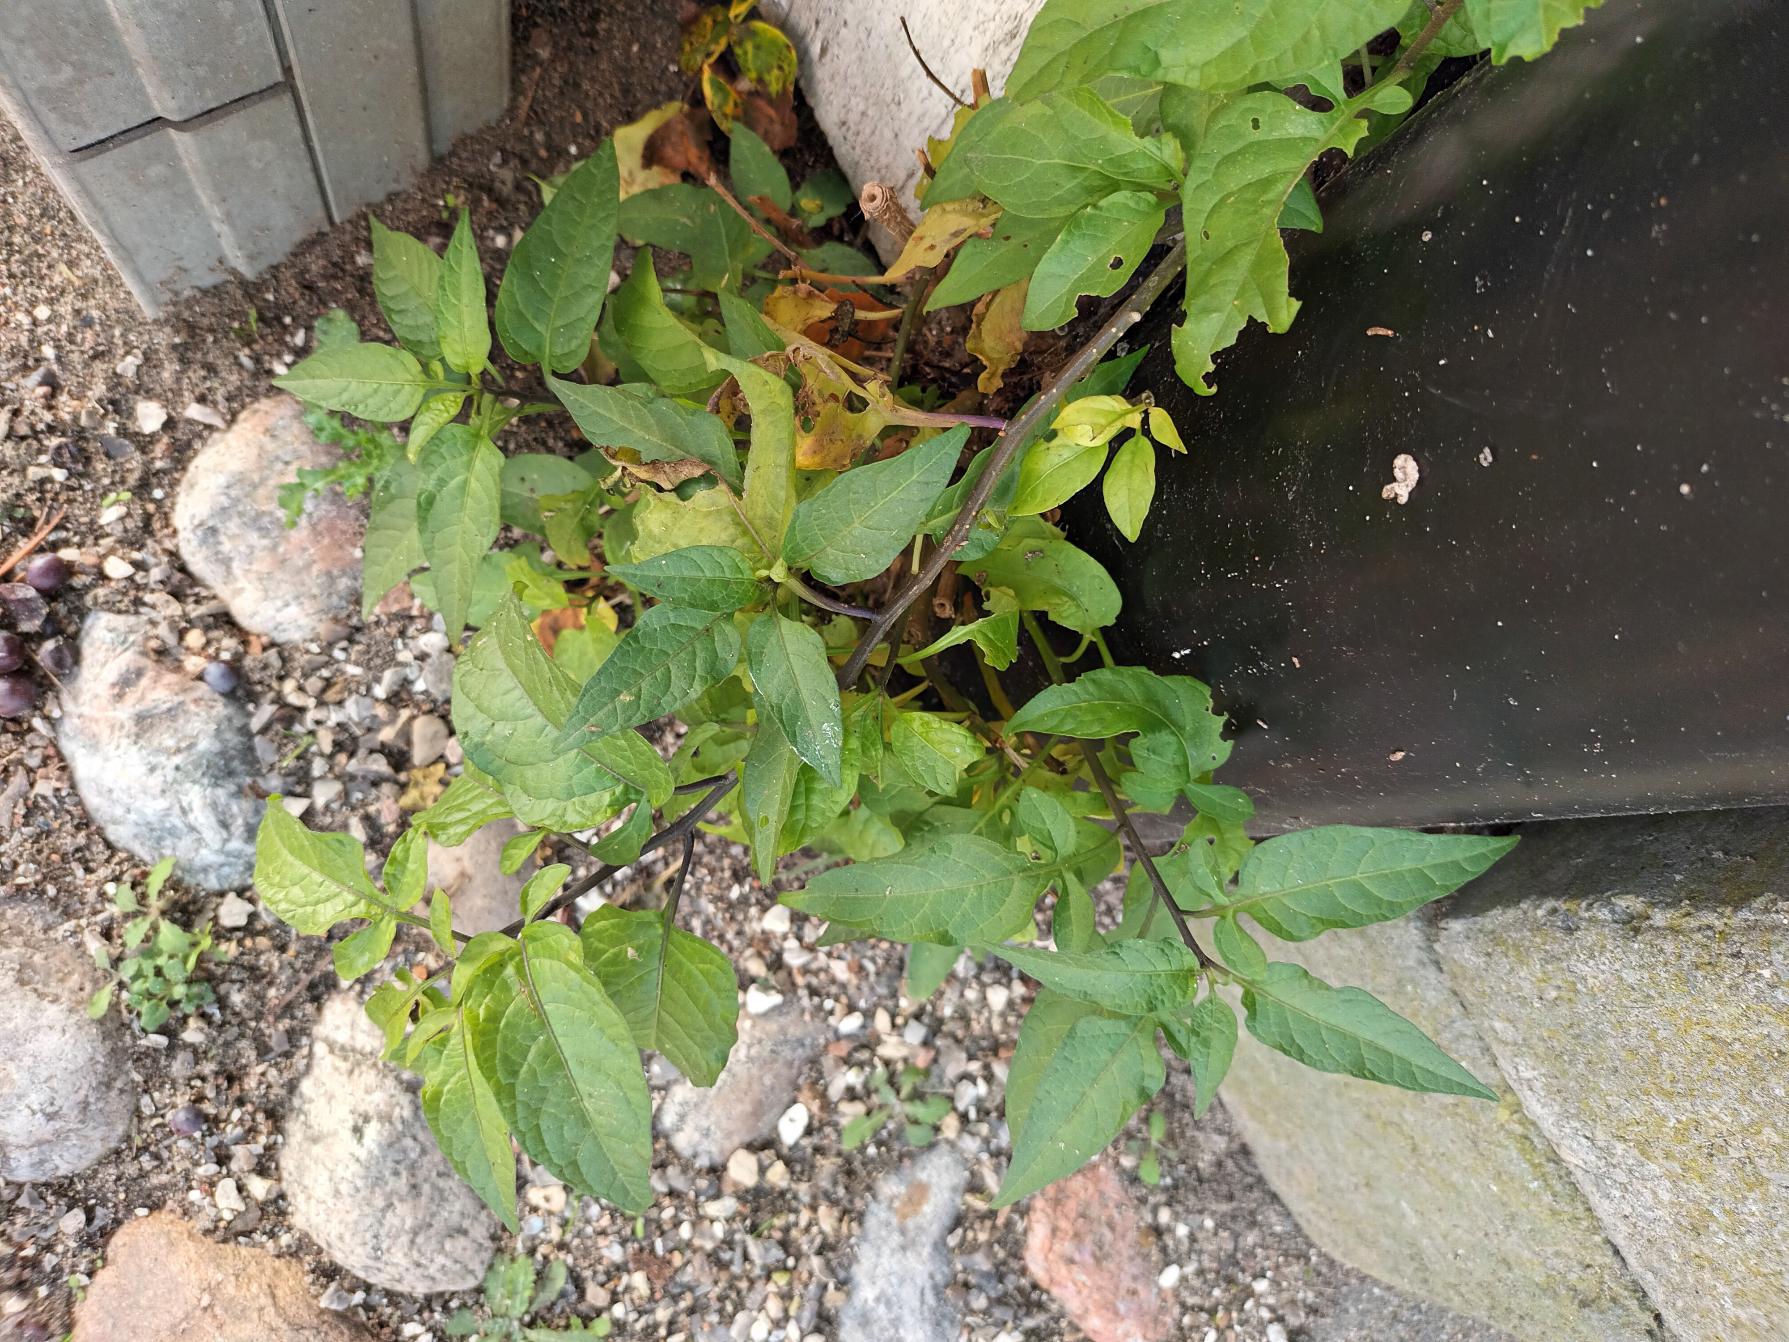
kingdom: Plantae
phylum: Tracheophyta
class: Magnoliopsida
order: Solanales
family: Solanaceae
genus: Solanum
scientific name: Solanum dulcamara
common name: Bittersød natskygge
